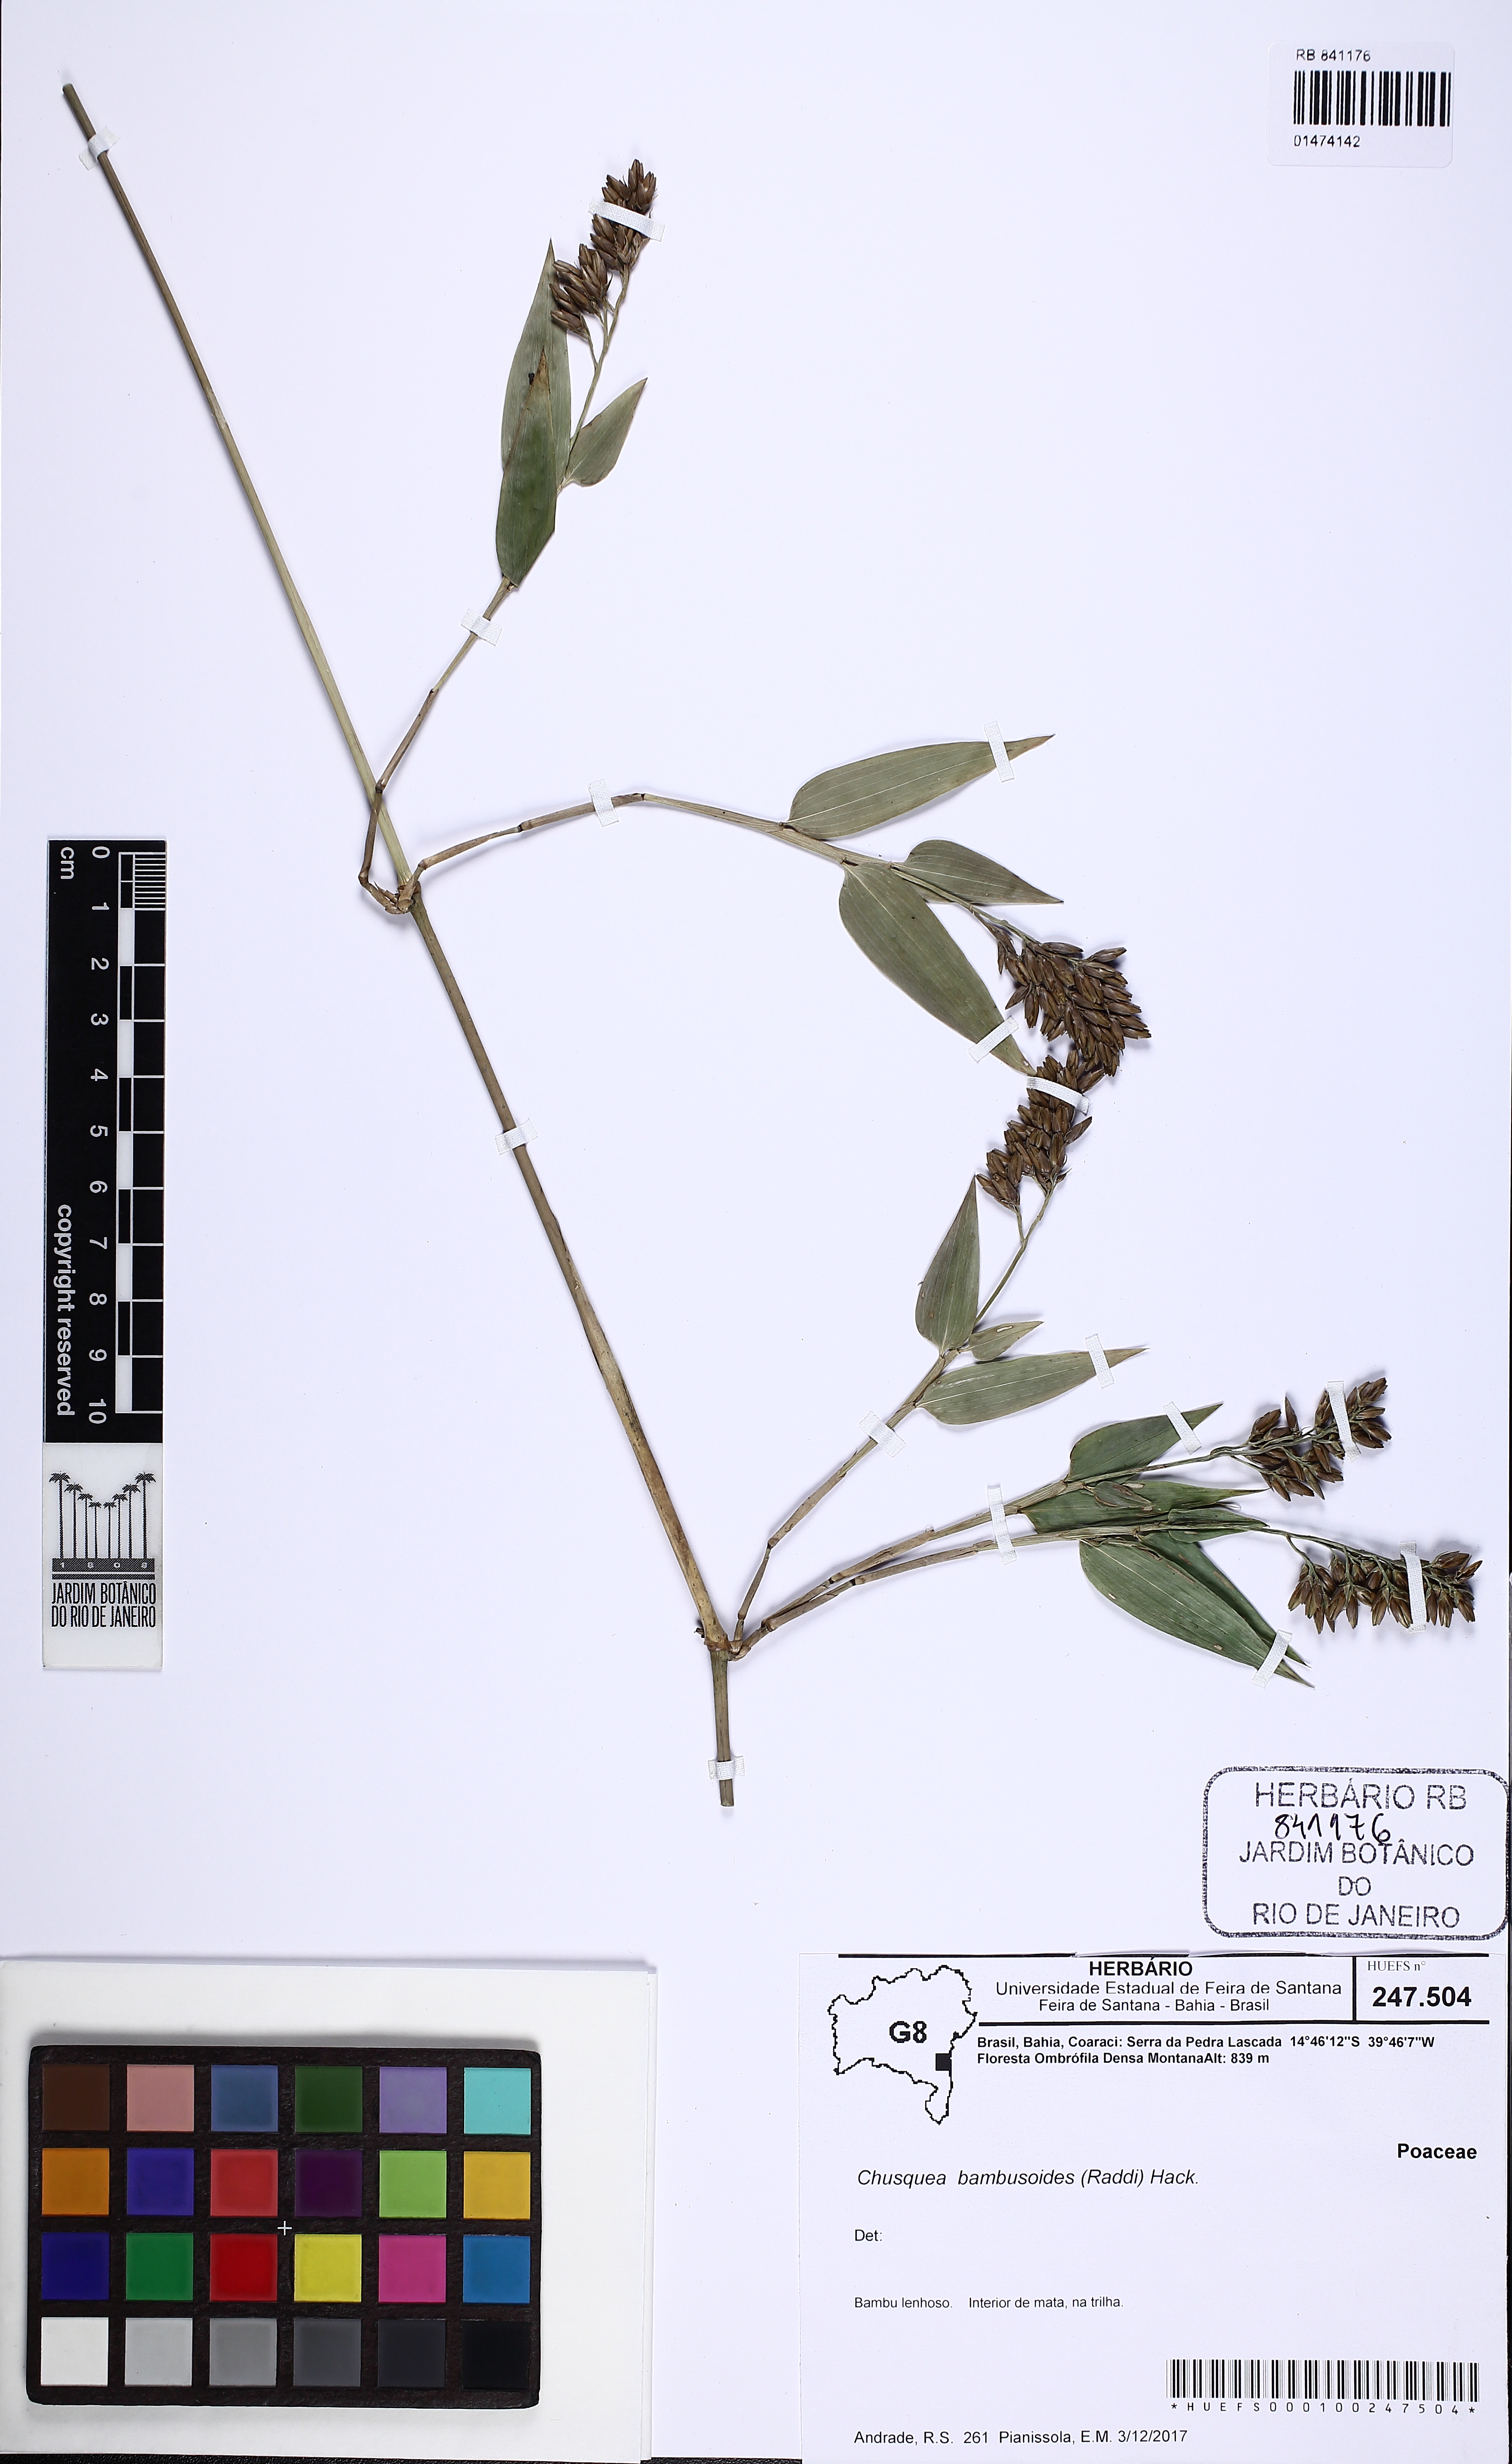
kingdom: Plantae
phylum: Tracheophyta
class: Liliopsida
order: Poales
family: Poaceae
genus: Chusquea
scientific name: Chusquea bambusoides
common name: Brazil scrambling bamboo
